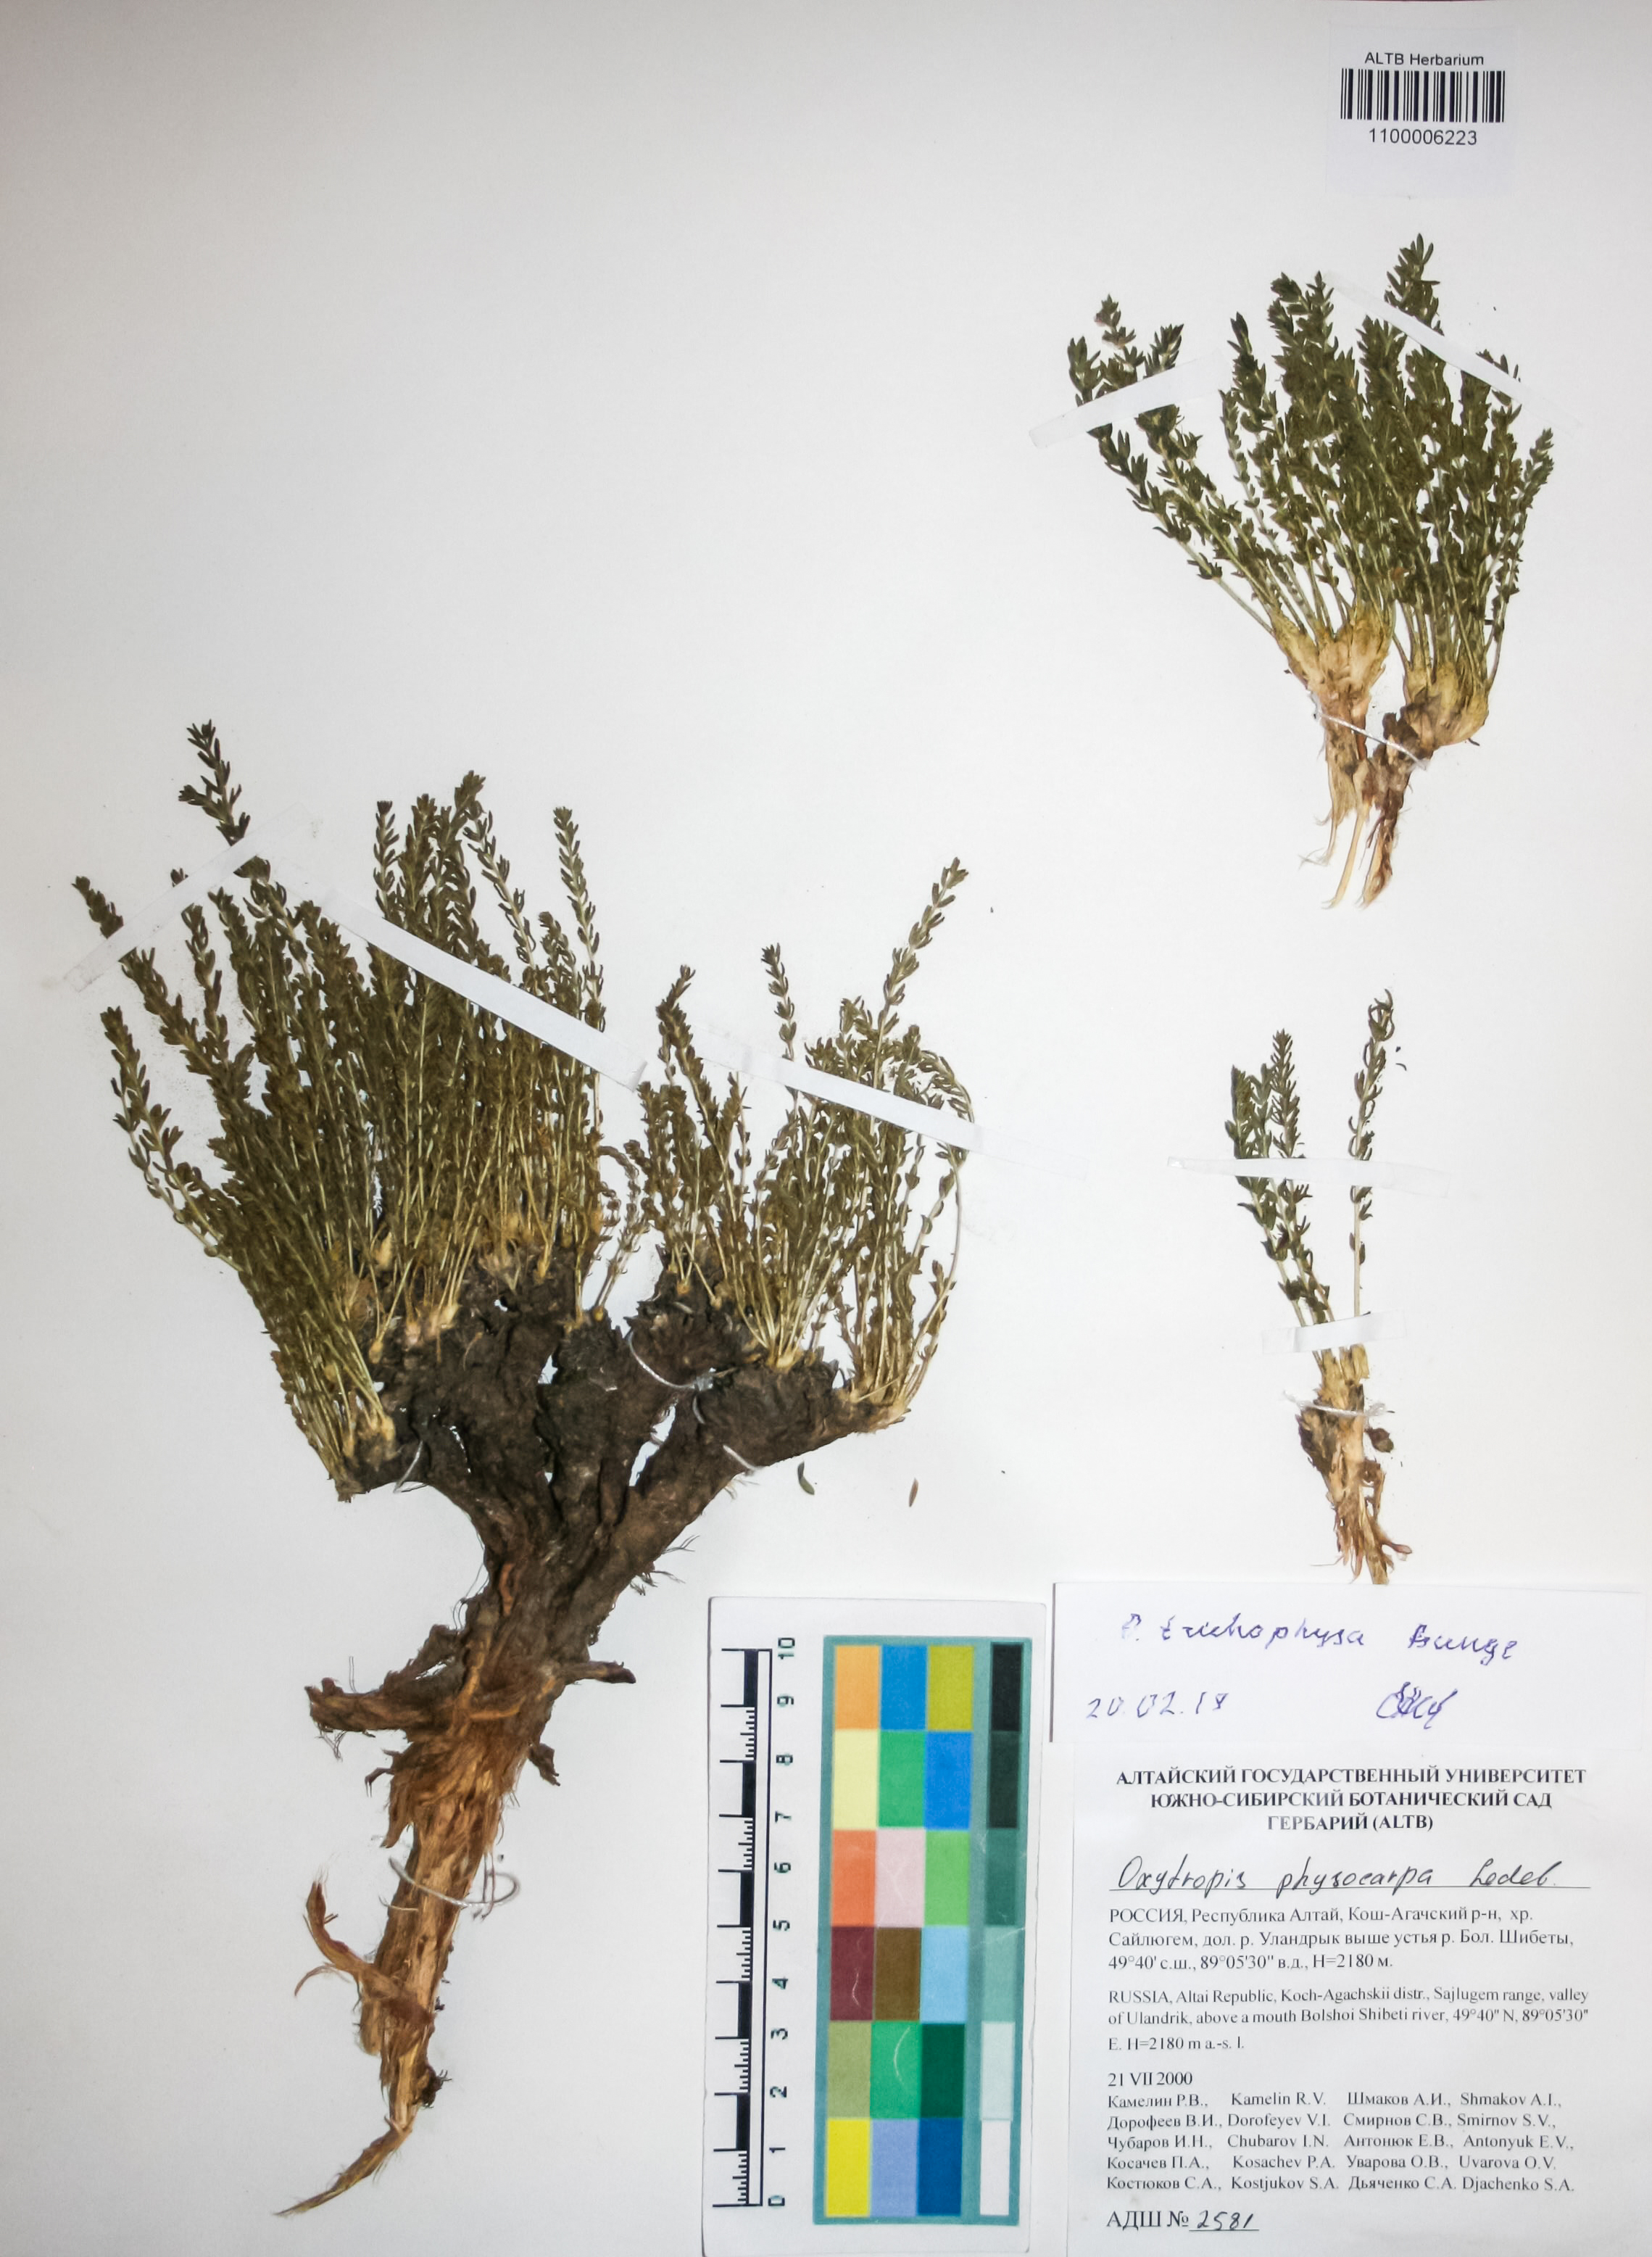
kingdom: Plantae
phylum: Tracheophyta
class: Magnoliopsida
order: Fabales
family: Fabaceae
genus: Oxytropis
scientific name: Oxytropis trichophysa
